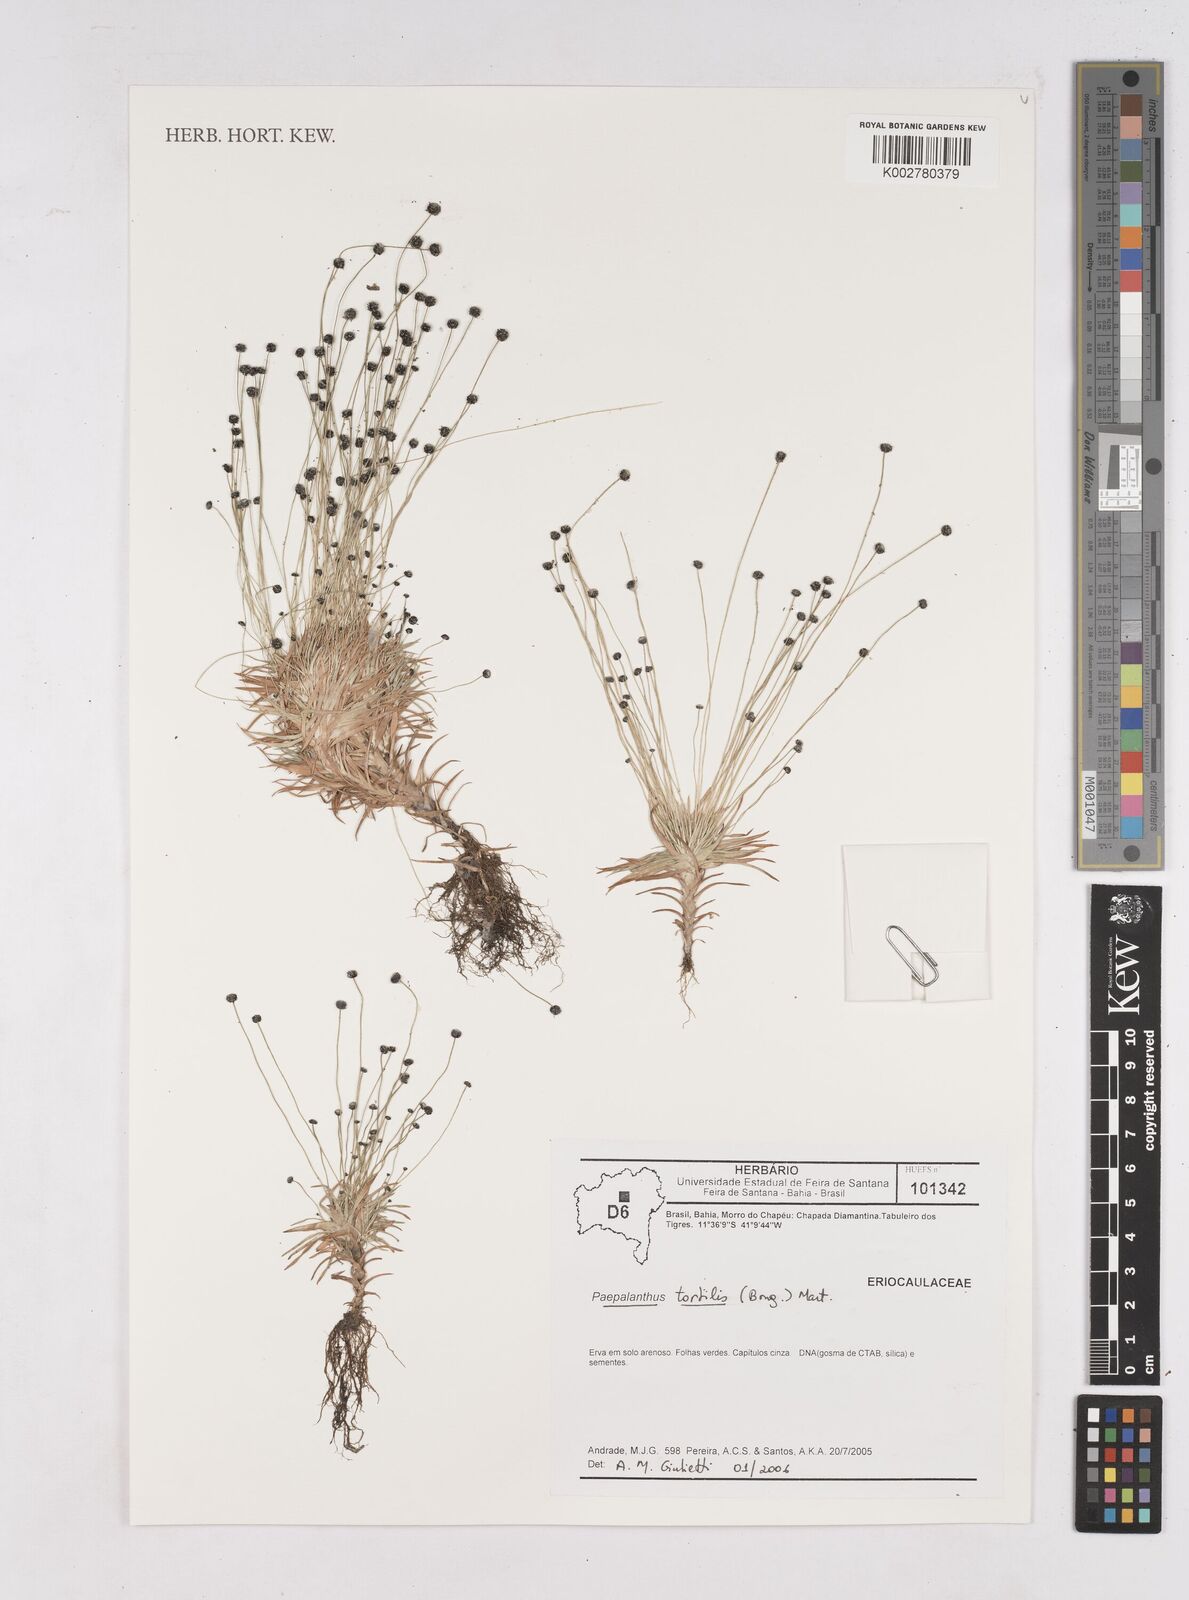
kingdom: Plantae
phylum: Tracheophyta
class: Liliopsida
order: Poales
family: Eriocaulaceae
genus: Paepalanthus
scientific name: Paepalanthus tortilis
